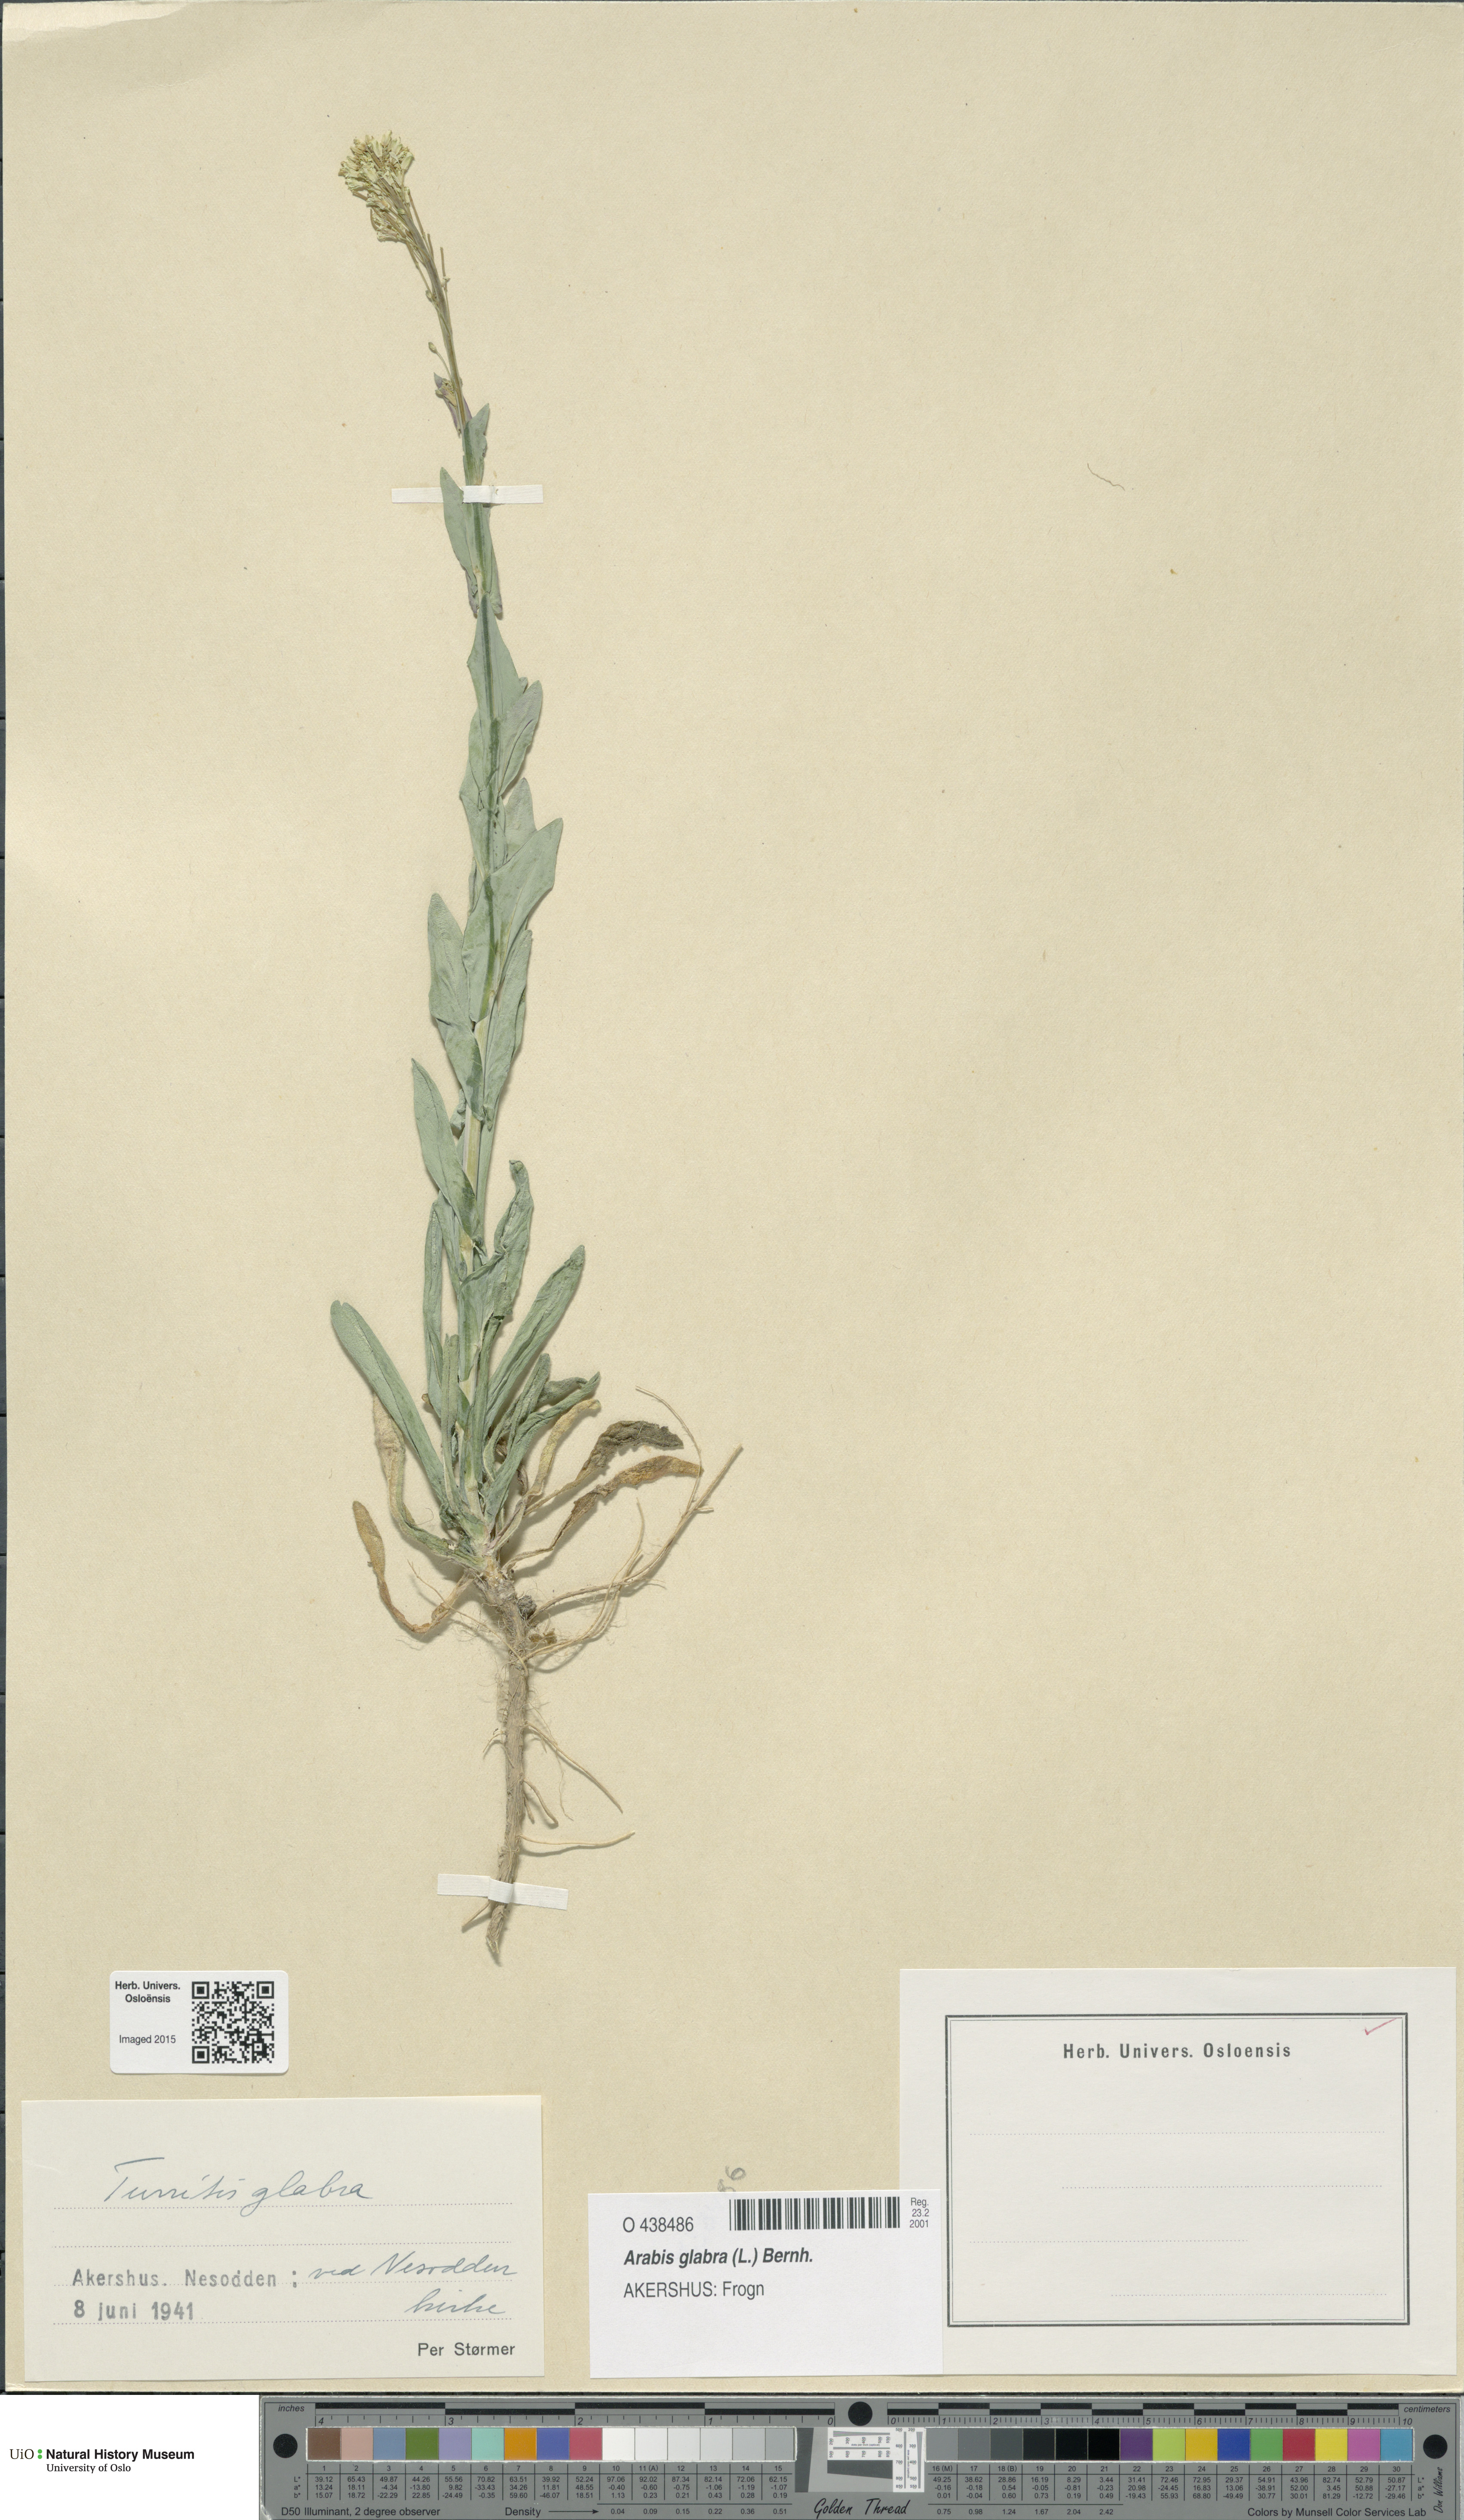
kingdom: Plantae
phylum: Tracheophyta
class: Magnoliopsida
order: Brassicales
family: Brassicaceae
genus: Turritis
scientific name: Turritis glabra
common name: Tower rockcress
